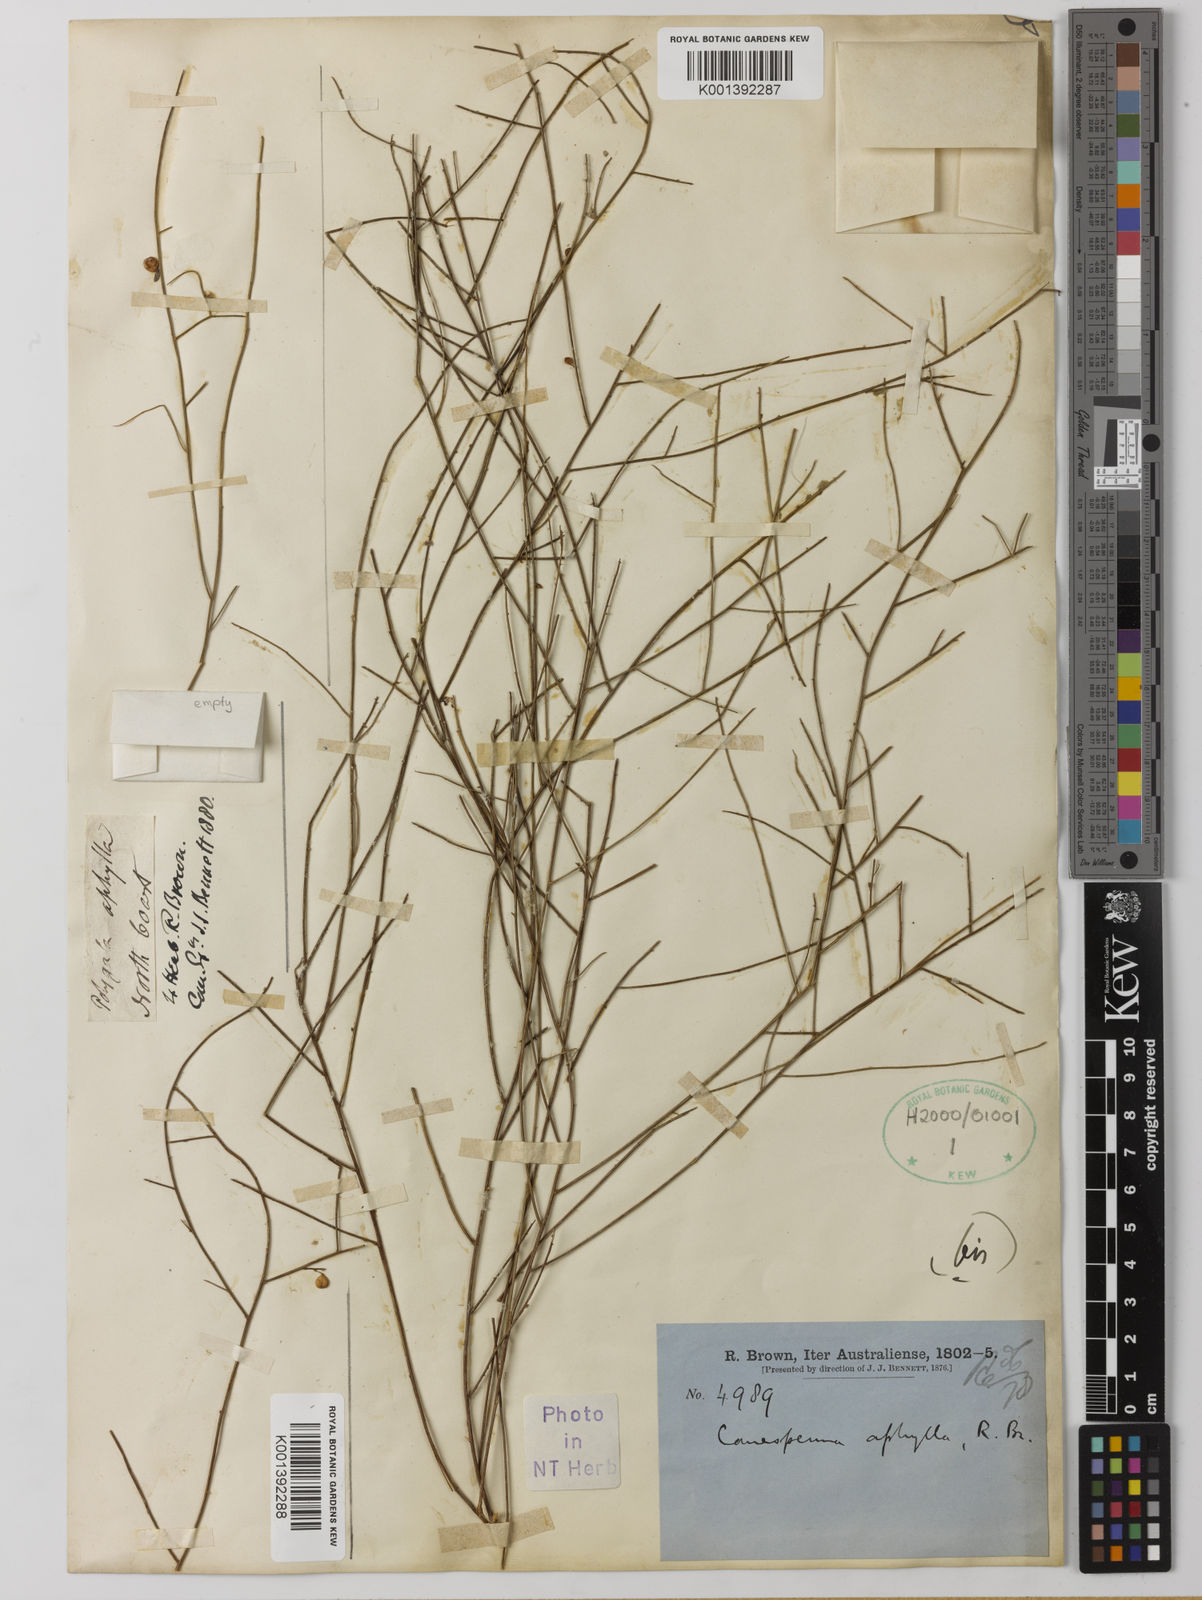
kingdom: Plantae
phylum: Tracheophyta
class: Magnoliopsida
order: Fabales
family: Polygalaceae
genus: Polygala
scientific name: Polygala
